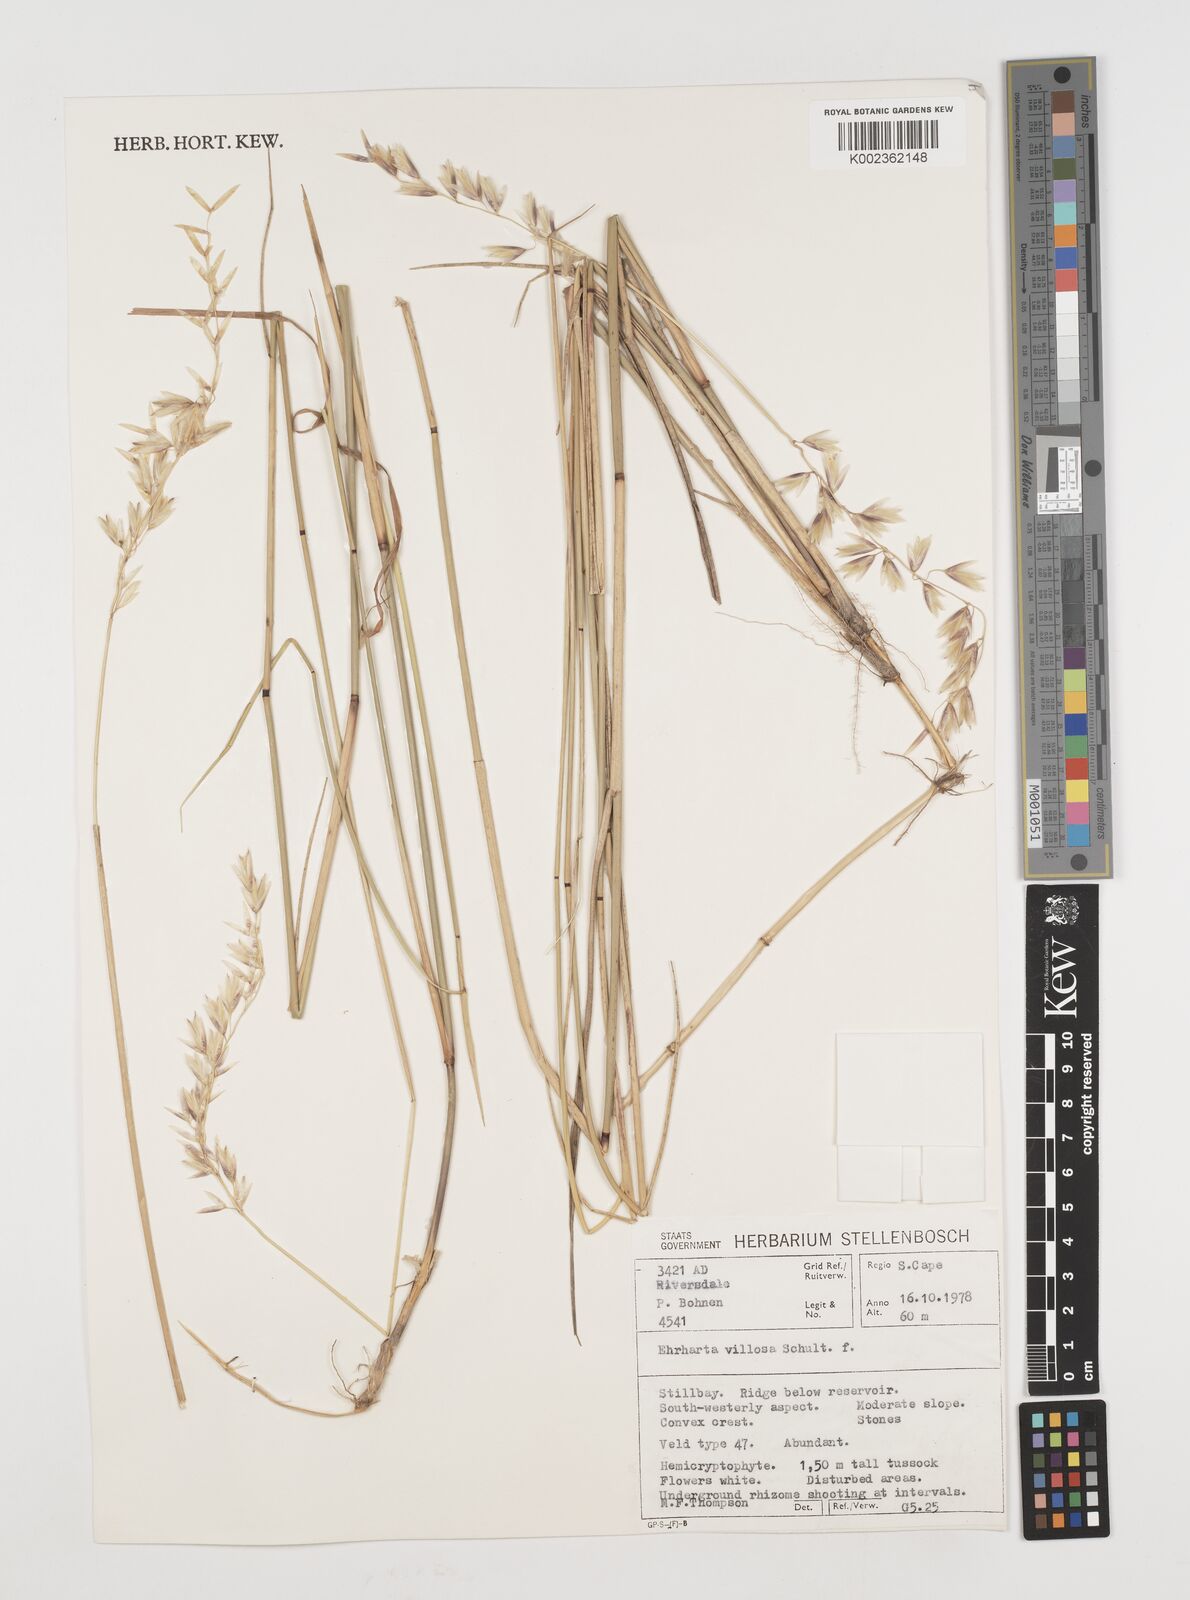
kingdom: Plantae
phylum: Tracheophyta
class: Liliopsida
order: Poales
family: Poaceae
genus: Ehrharta
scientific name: Ehrharta villosa
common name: Pyp grass
